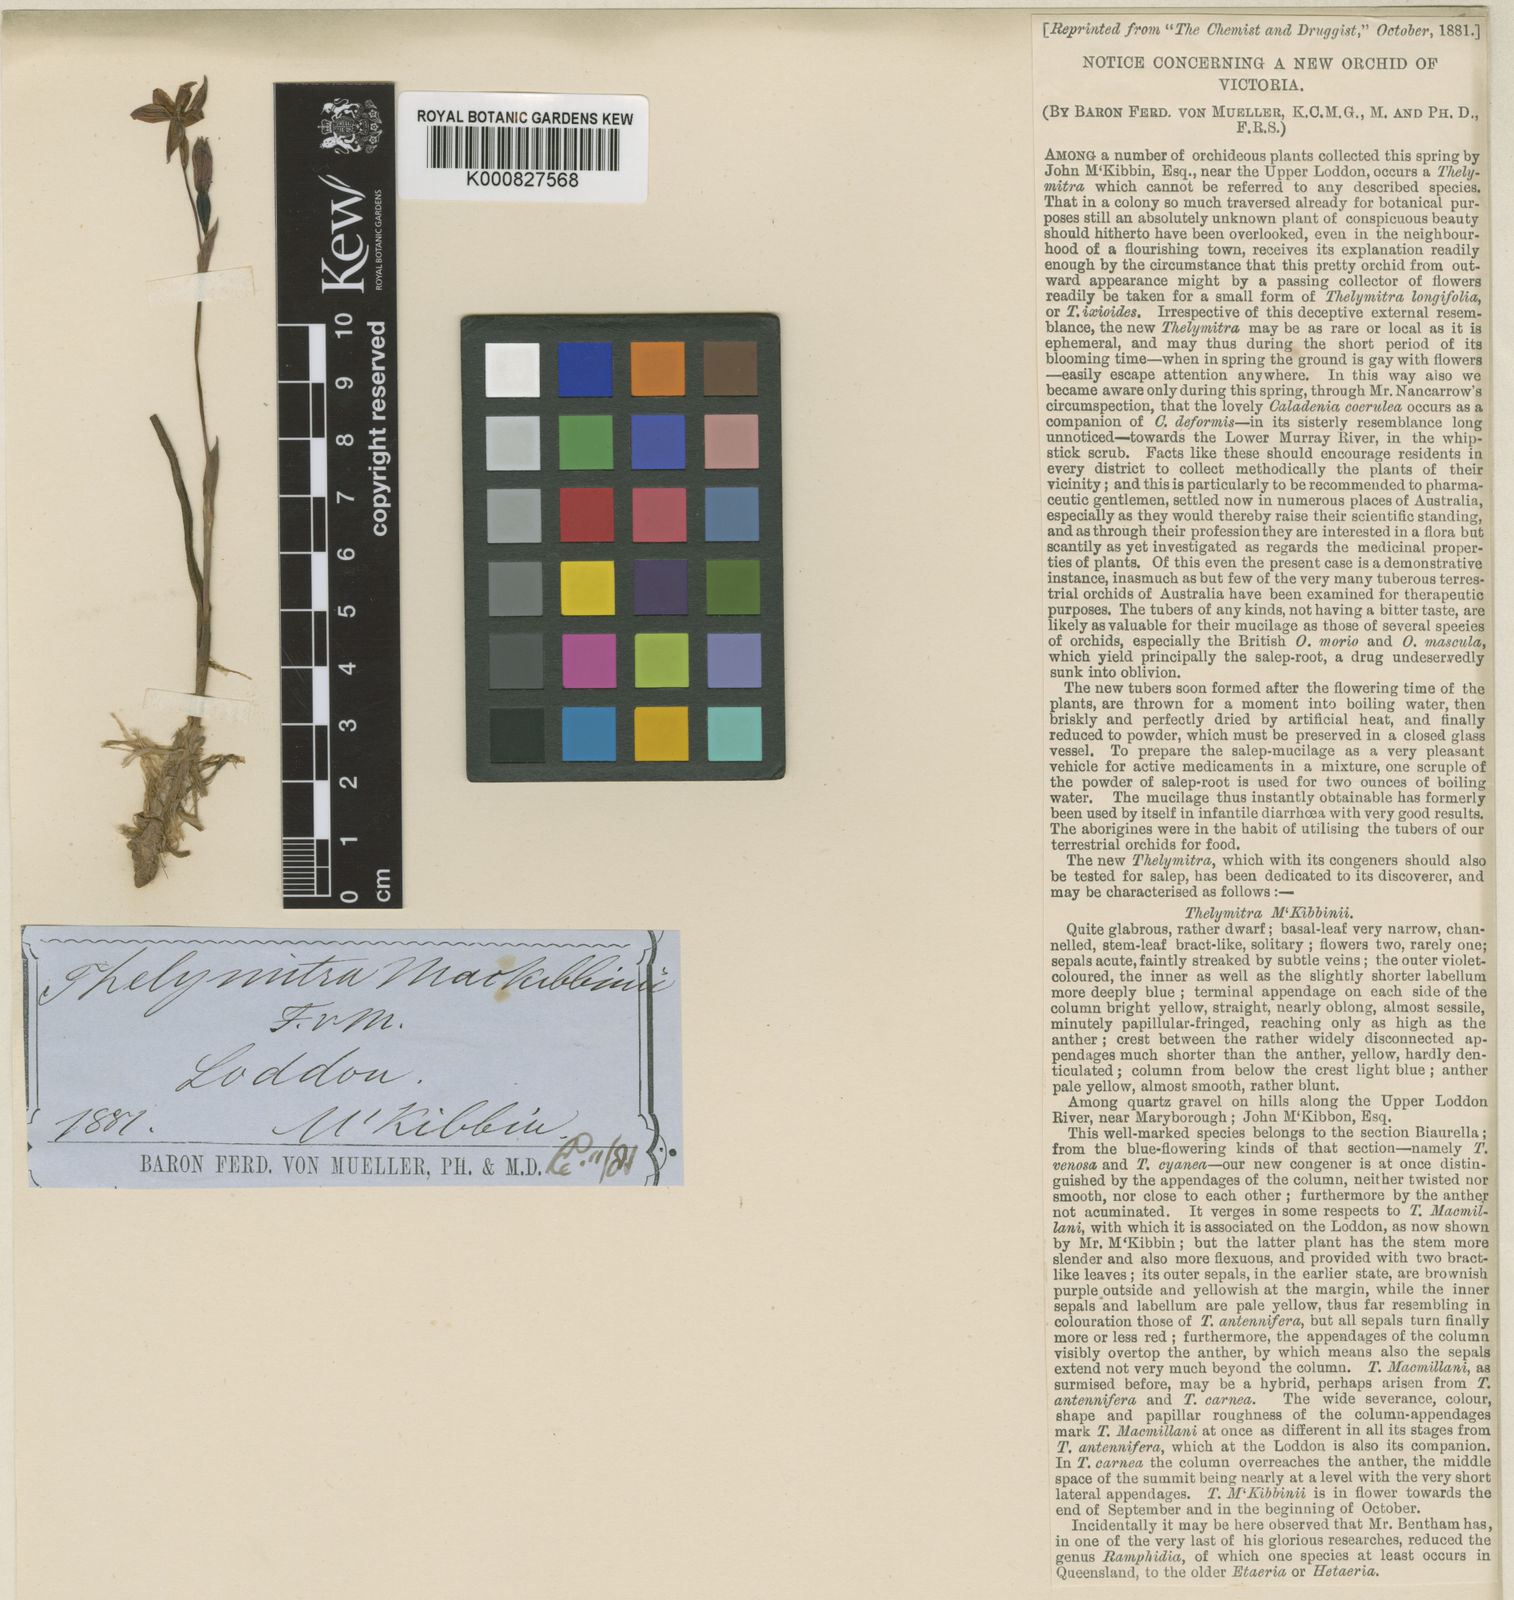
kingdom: Plantae
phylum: Tracheophyta
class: Liliopsida
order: Asparagales
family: Orchidaceae
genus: Thelymitra
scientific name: Thelymitra mackibbinii
